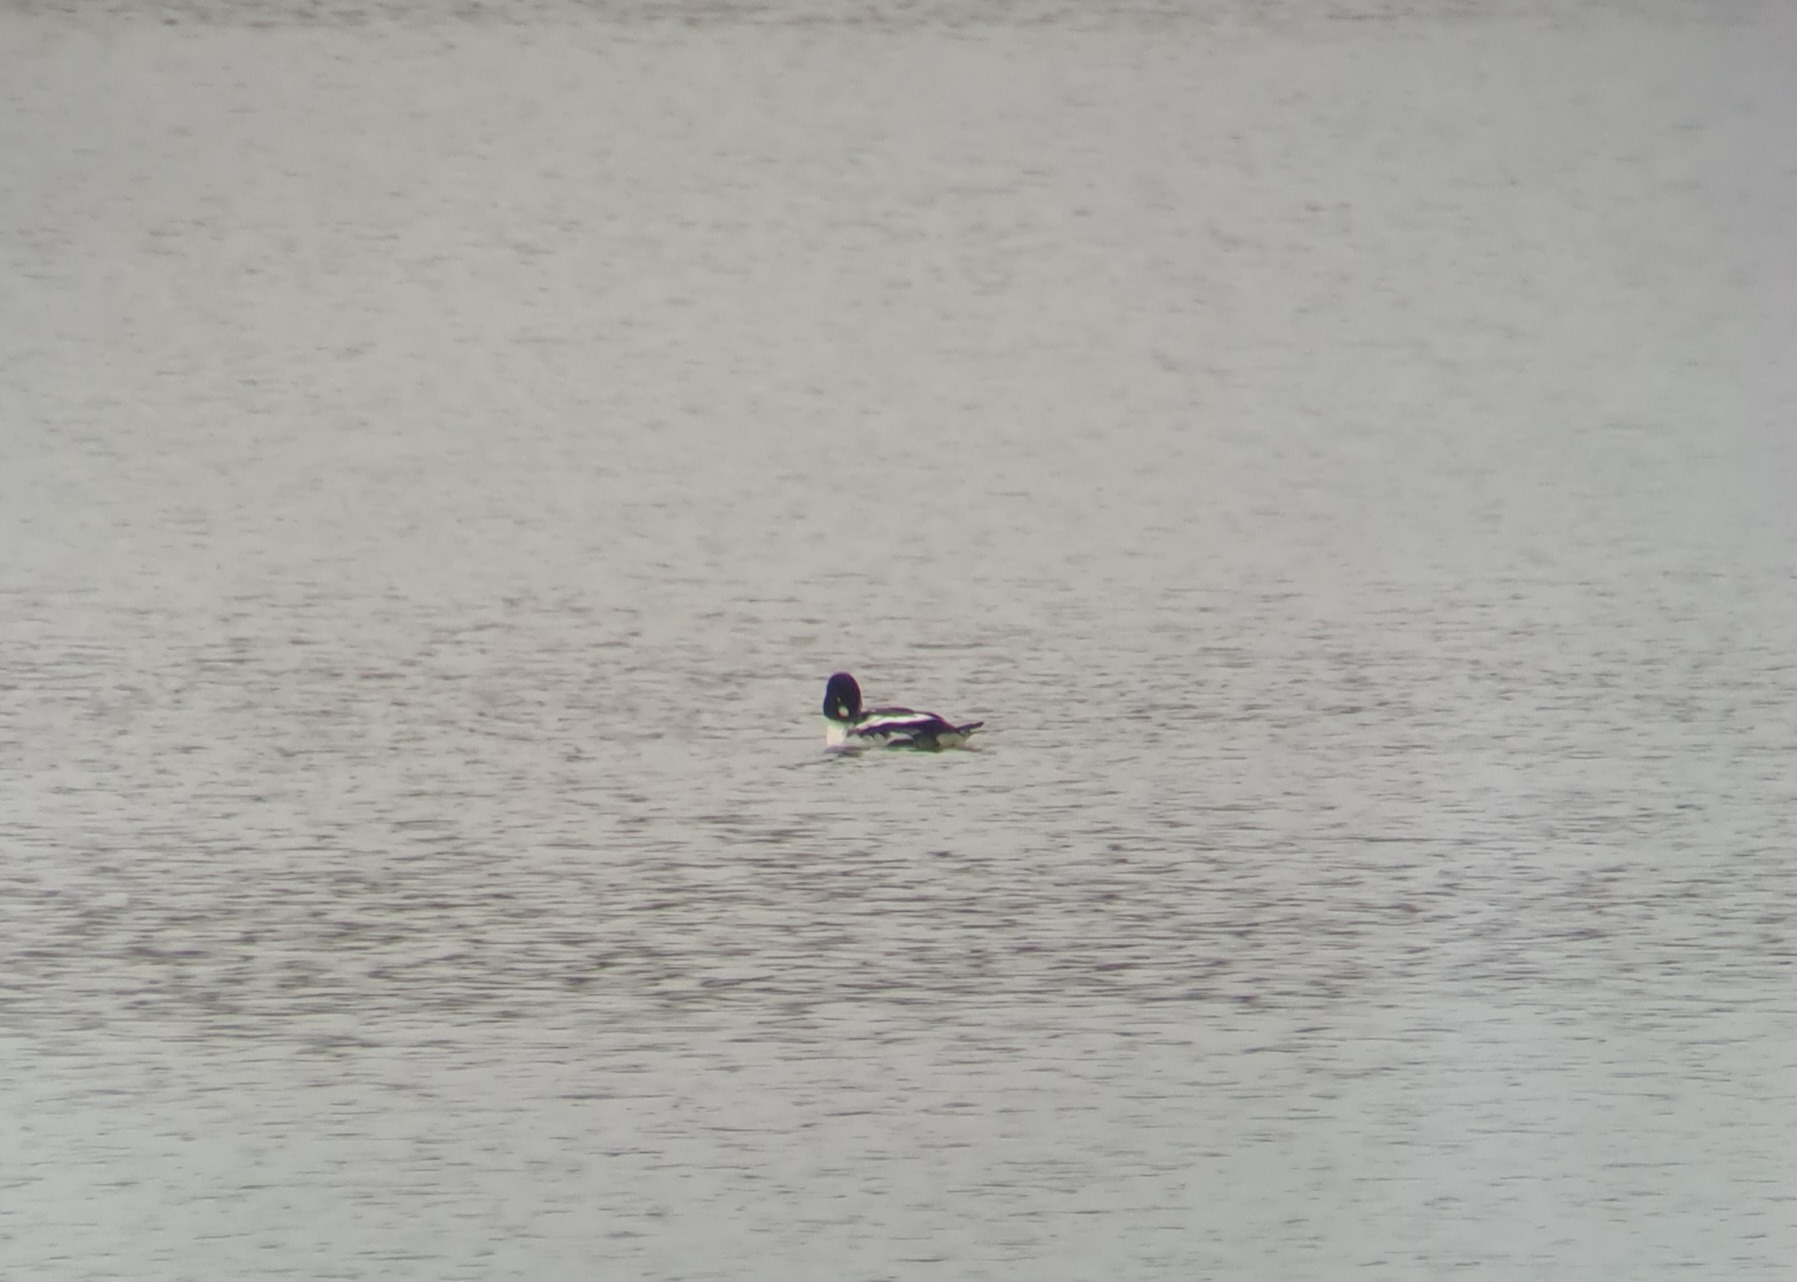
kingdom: Animalia
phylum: Chordata
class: Aves
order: Anseriformes
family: Anatidae
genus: Bucephala
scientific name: Bucephala clangula
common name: Hvinand
